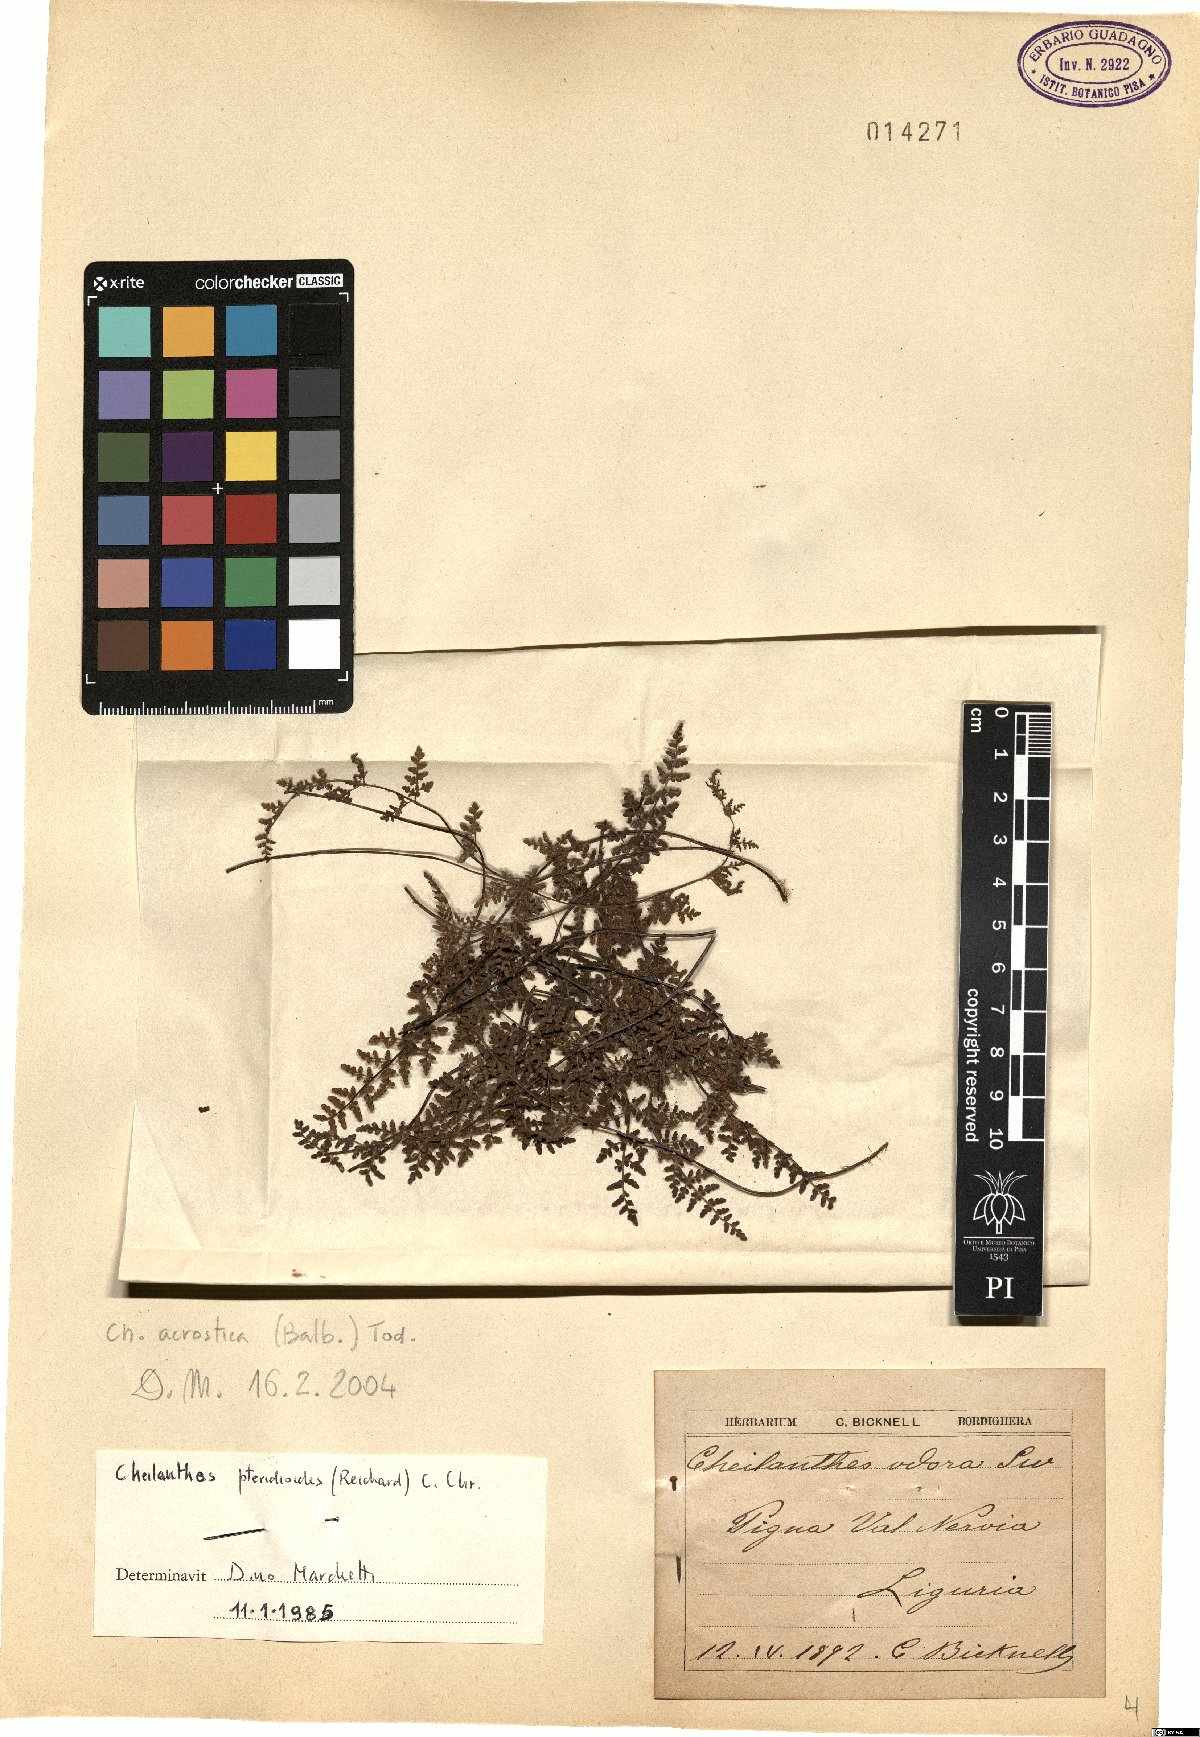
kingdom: Plantae
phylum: Tracheophyta
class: Polypodiopsida
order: Polypodiales
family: Pteridaceae
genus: Oeosporangium
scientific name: Oeosporangium pteridioides
